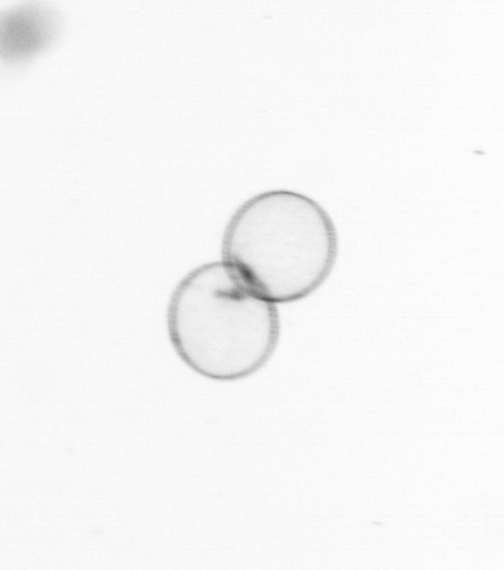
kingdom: Chromista
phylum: Myzozoa
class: Dinophyceae
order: Noctilucales
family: Noctilucaceae
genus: Noctiluca
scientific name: Noctiluca scintillans
